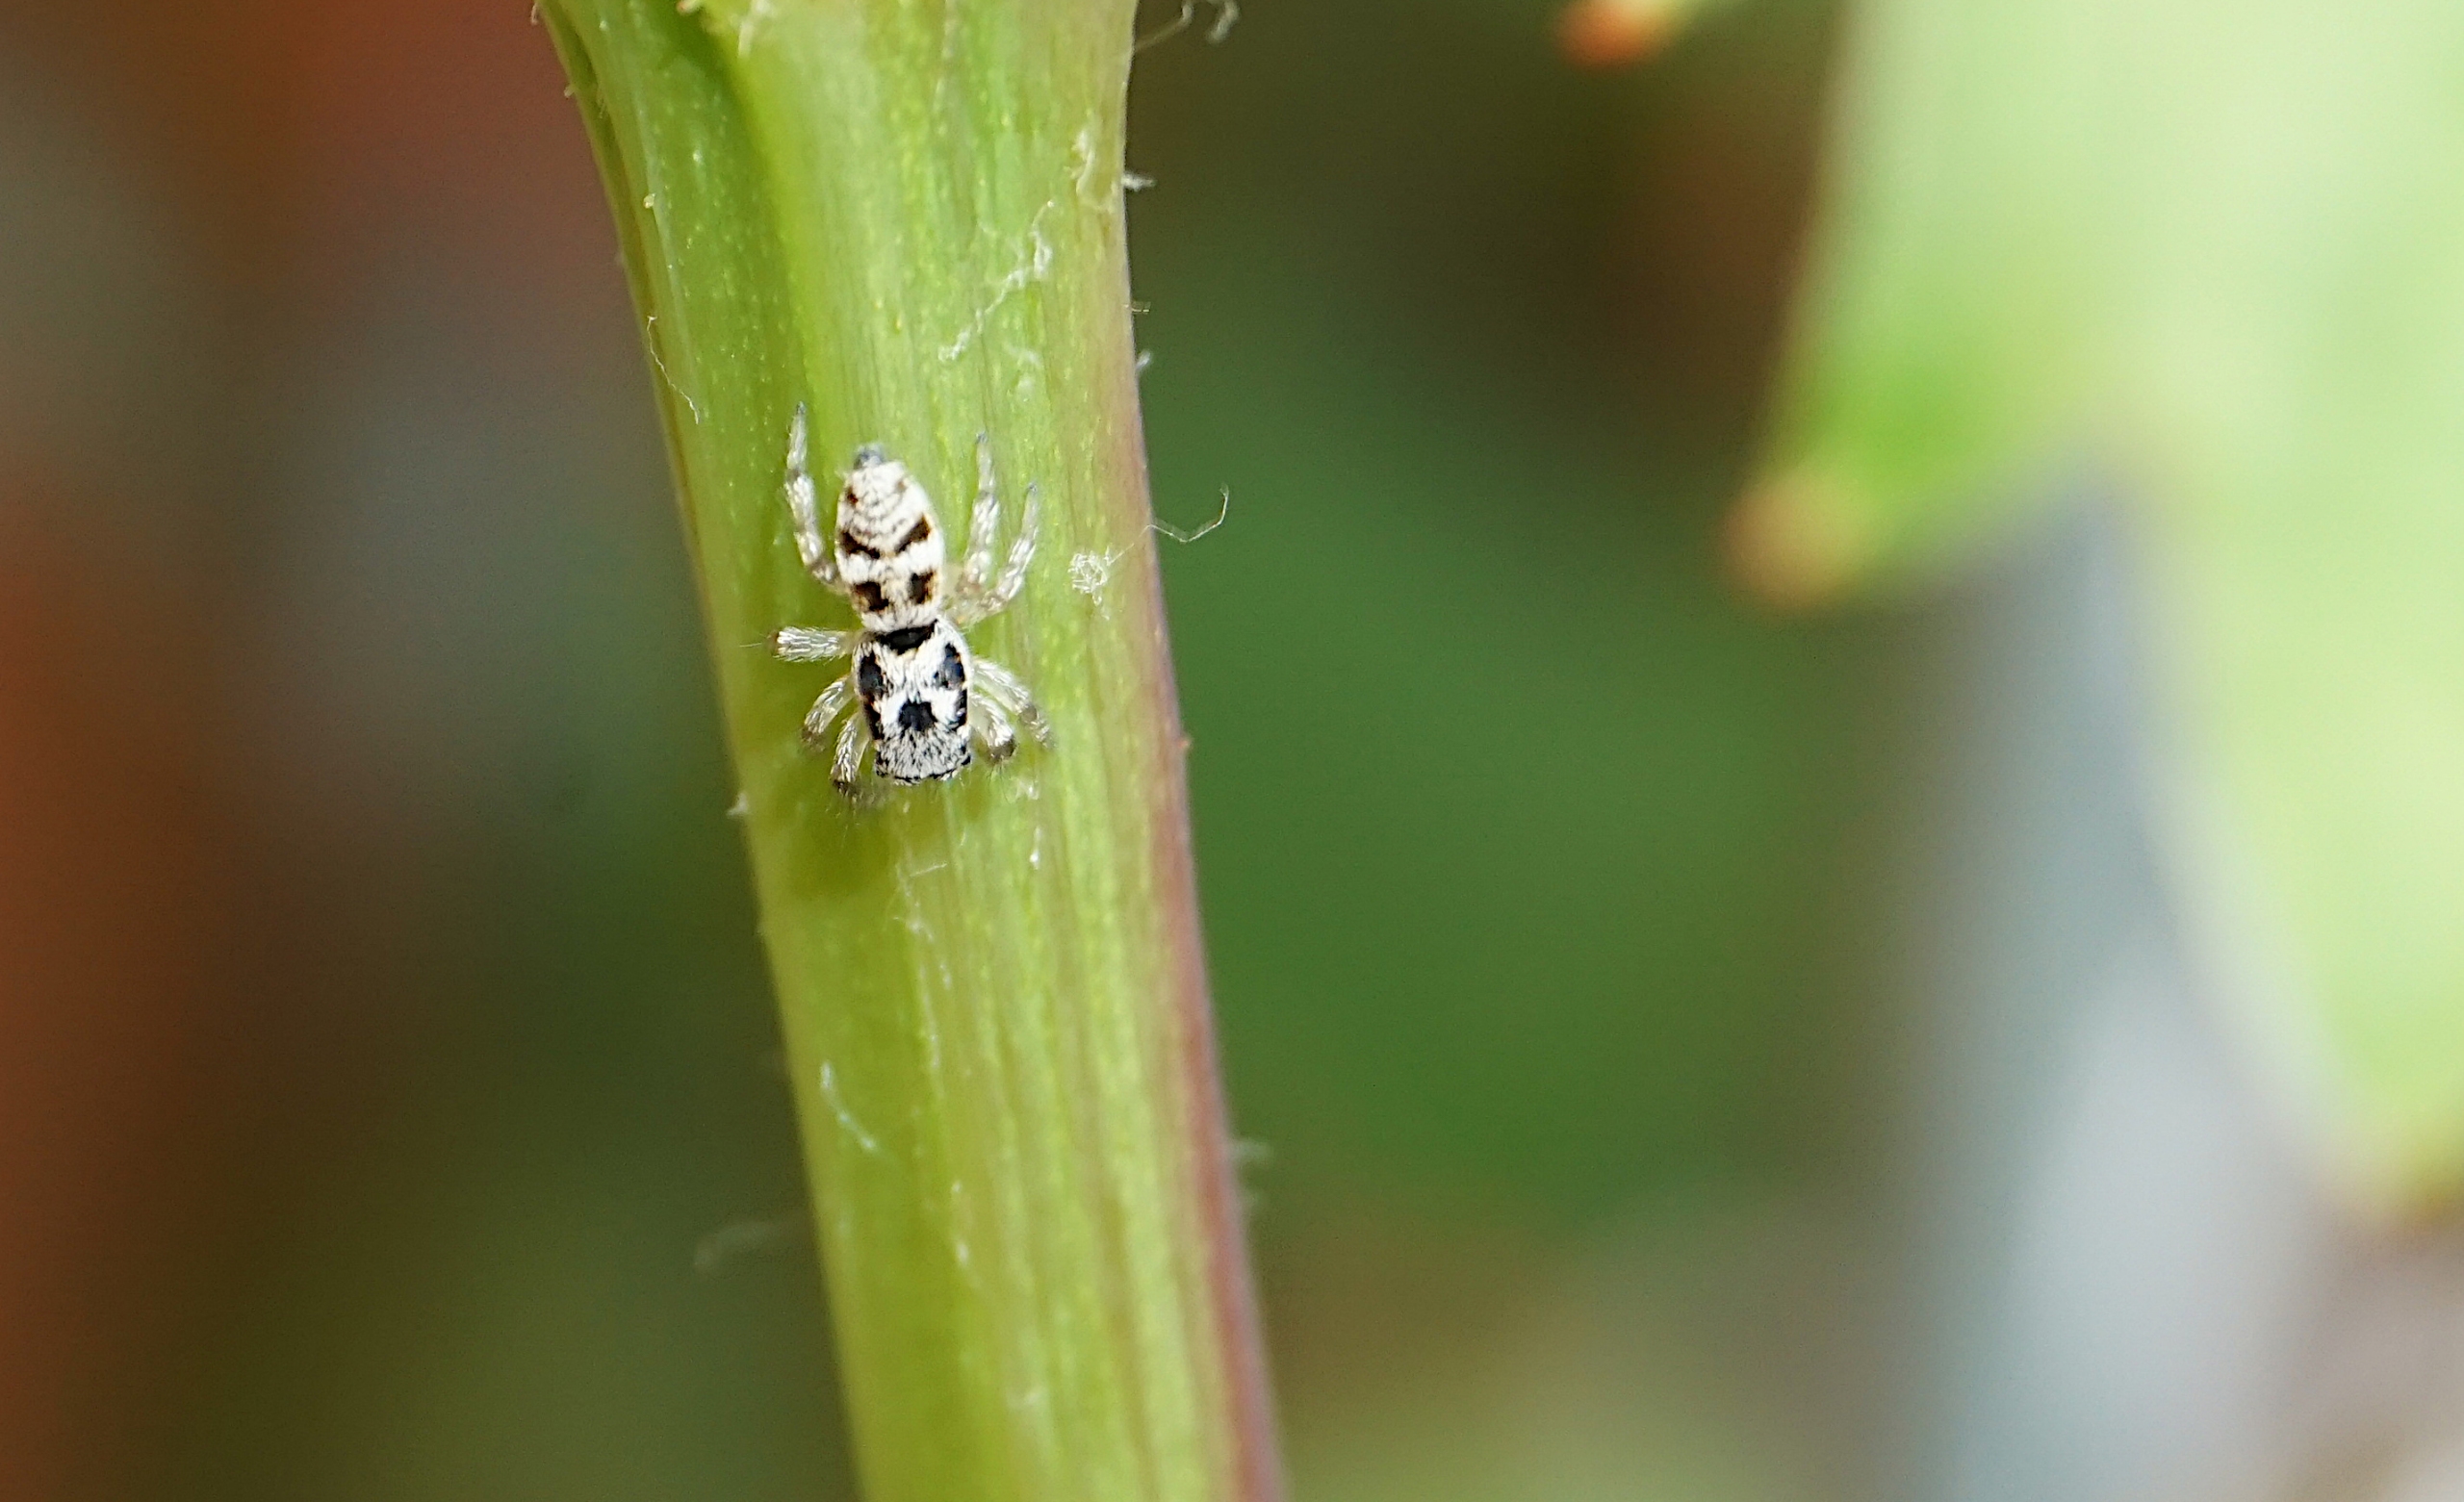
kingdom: Animalia
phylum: Arthropoda
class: Arachnida
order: Araneae
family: Salticidae
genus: Salticus
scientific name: Salticus
